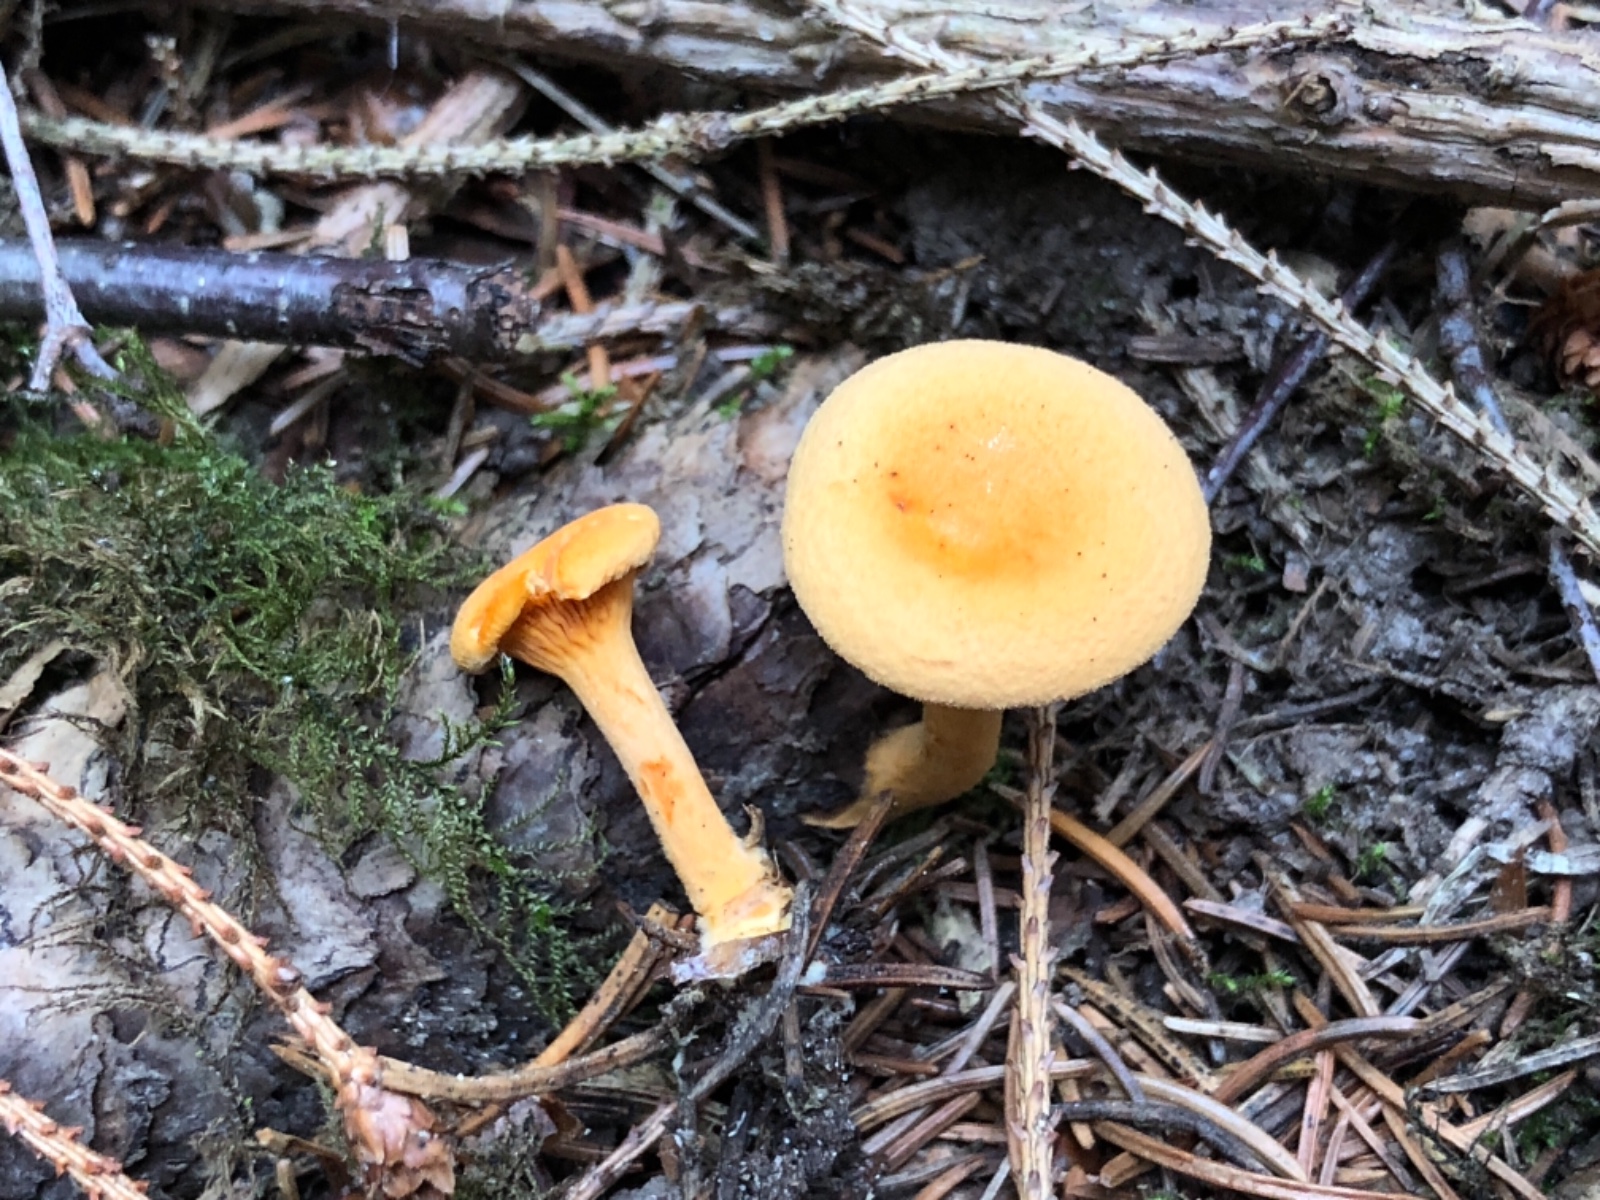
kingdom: Fungi
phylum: Basidiomycota
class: Agaricomycetes
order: Boletales
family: Hygrophoropsidaceae
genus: Hygrophoropsis
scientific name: Hygrophoropsis aurantiaca
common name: almindelig orangekantarel
